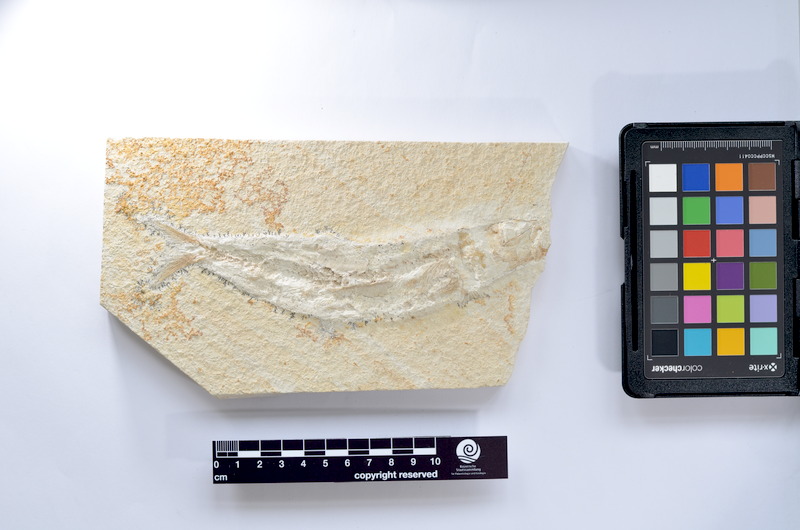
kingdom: Animalia
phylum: Chordata
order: Elopiformes
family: Anaethalionidae
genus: Anaethalion
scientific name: Anaethalion knorri
